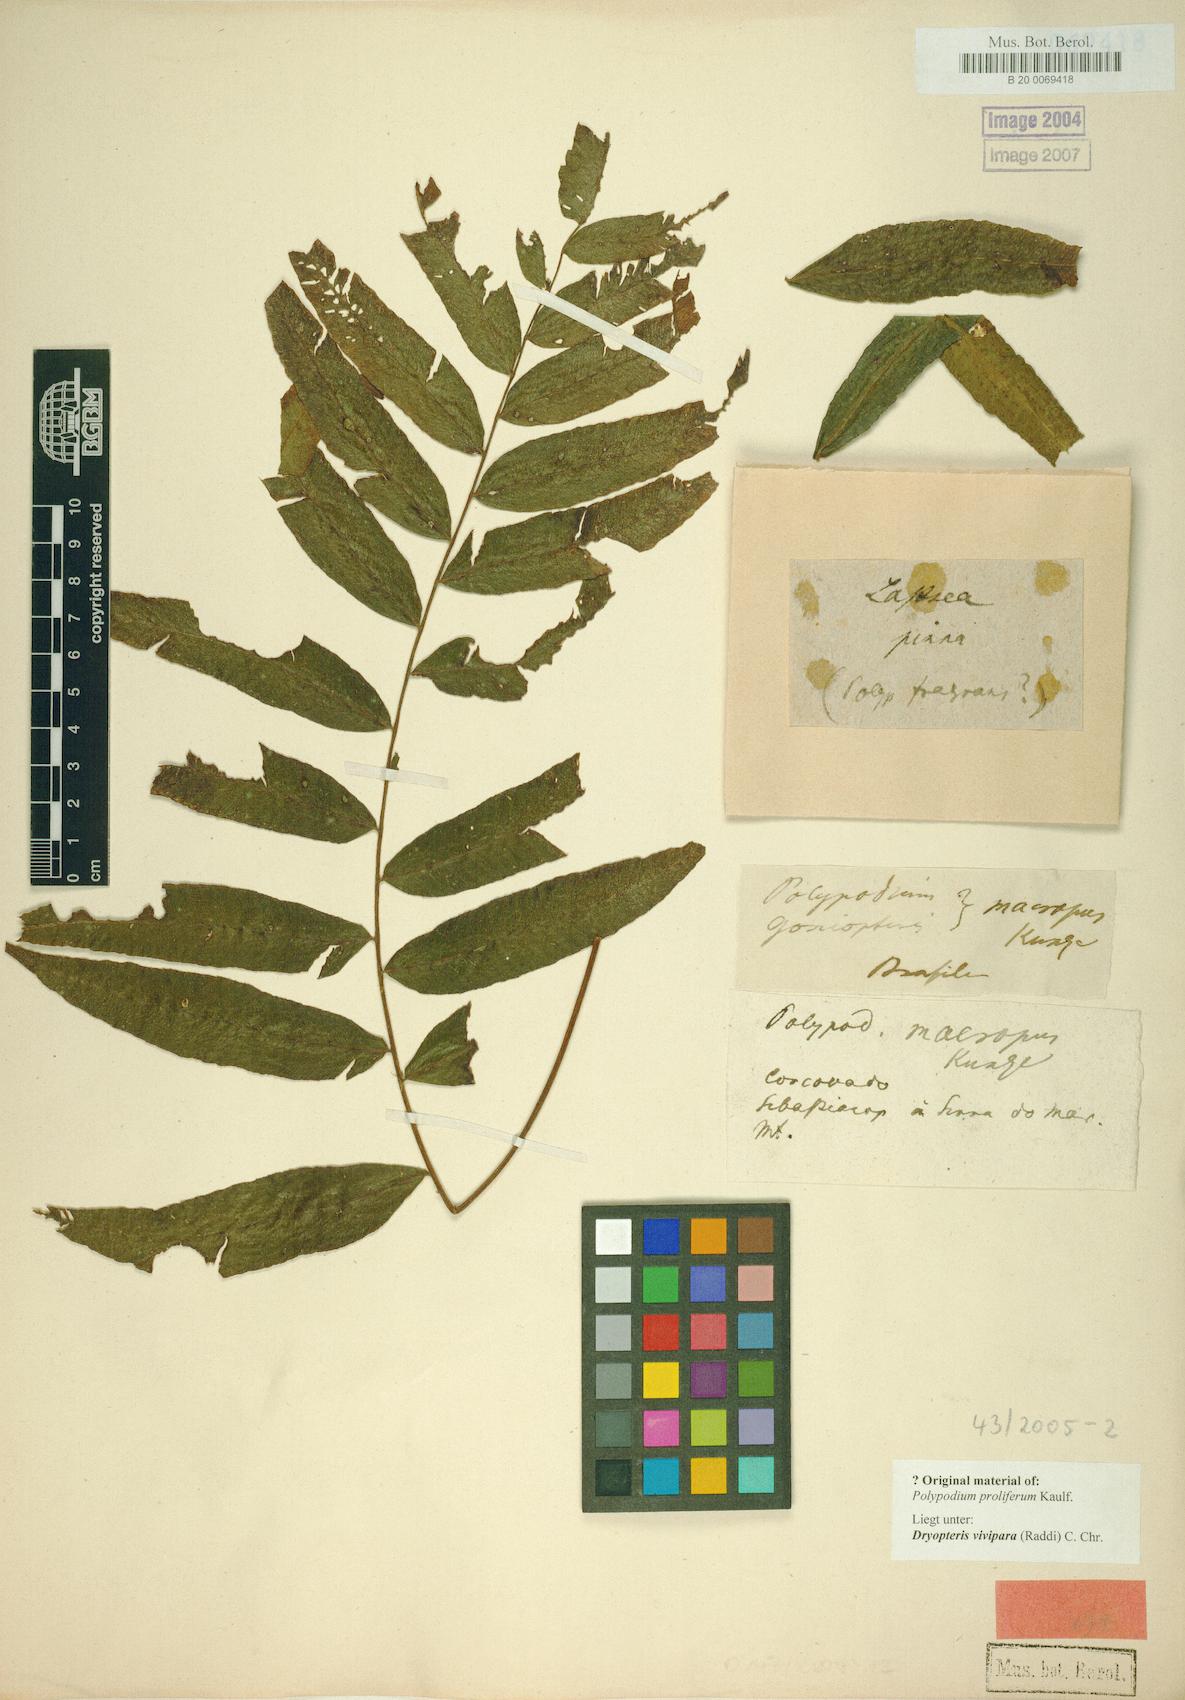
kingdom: Plantae
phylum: Tracheophyta
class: Polypodiopsida
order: Polypodiales
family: Thelypteridaceae
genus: Goniopteris
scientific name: Goniopteris vivipara
